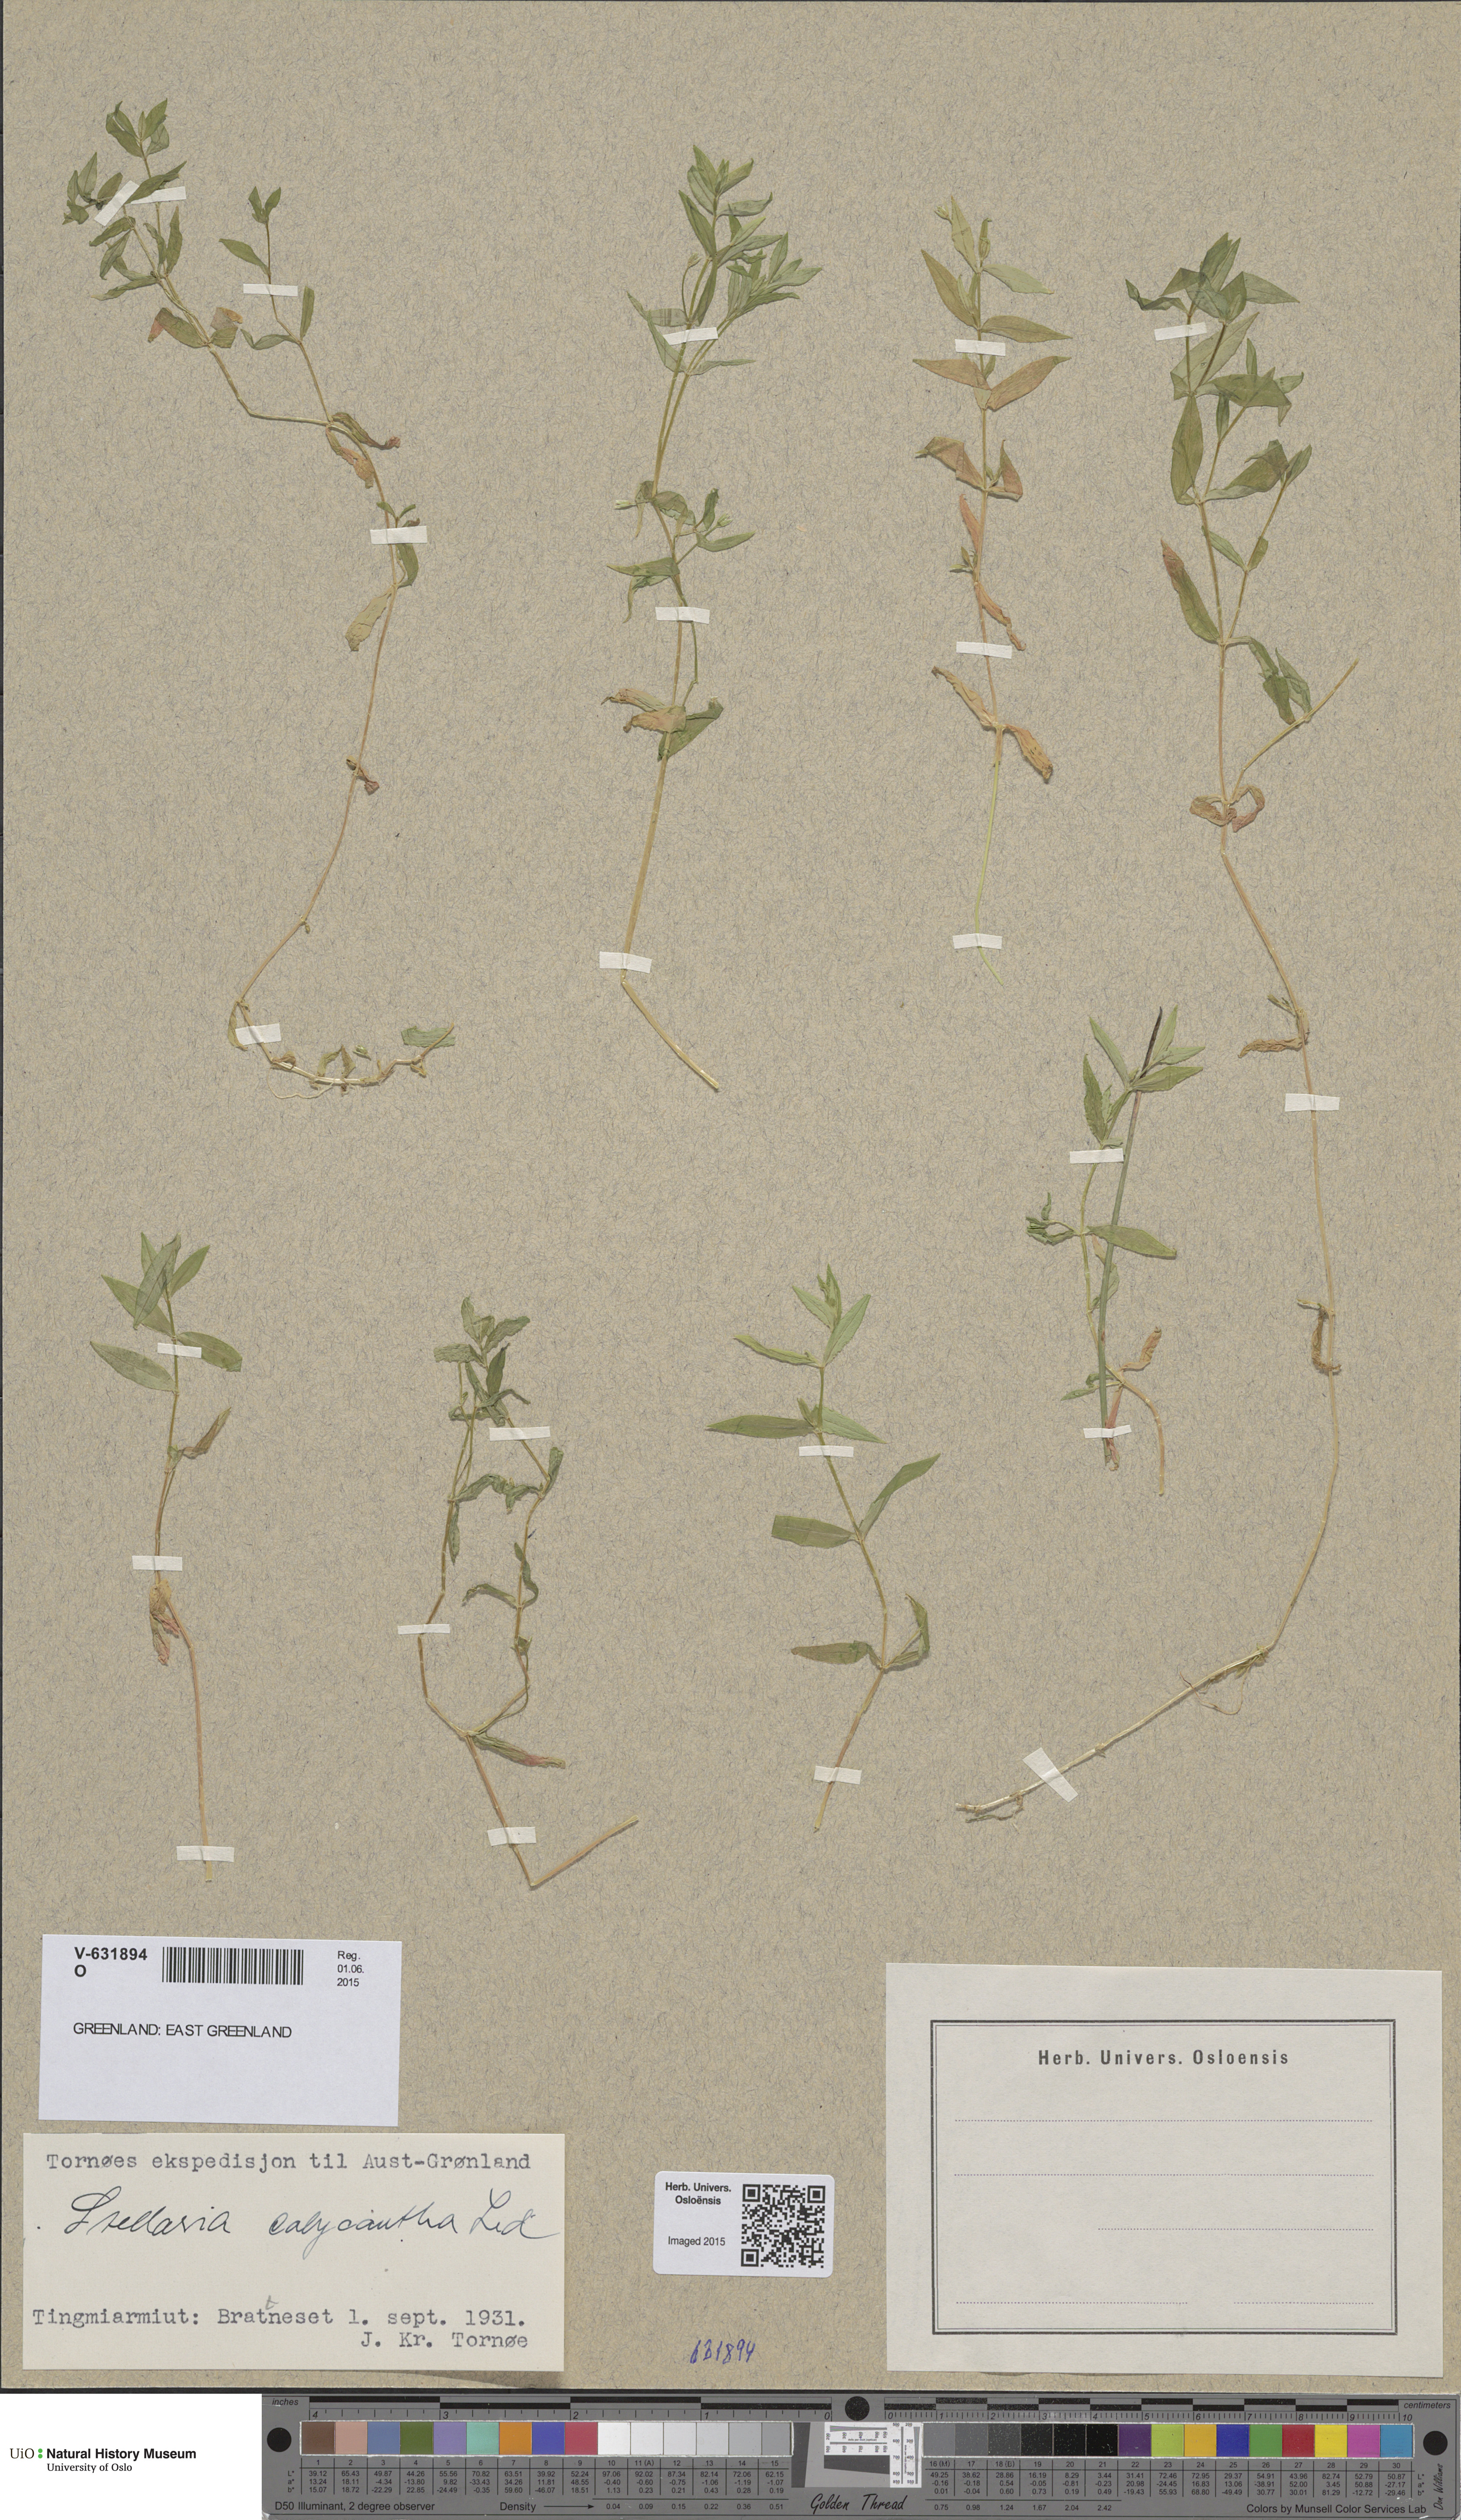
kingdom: Plantae
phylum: Tracheophyta
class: Magnoliopsida
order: Caryophyllales
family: Caryophyllaceae
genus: Stellaria
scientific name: Stellaria borealis
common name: Boreal starwort
